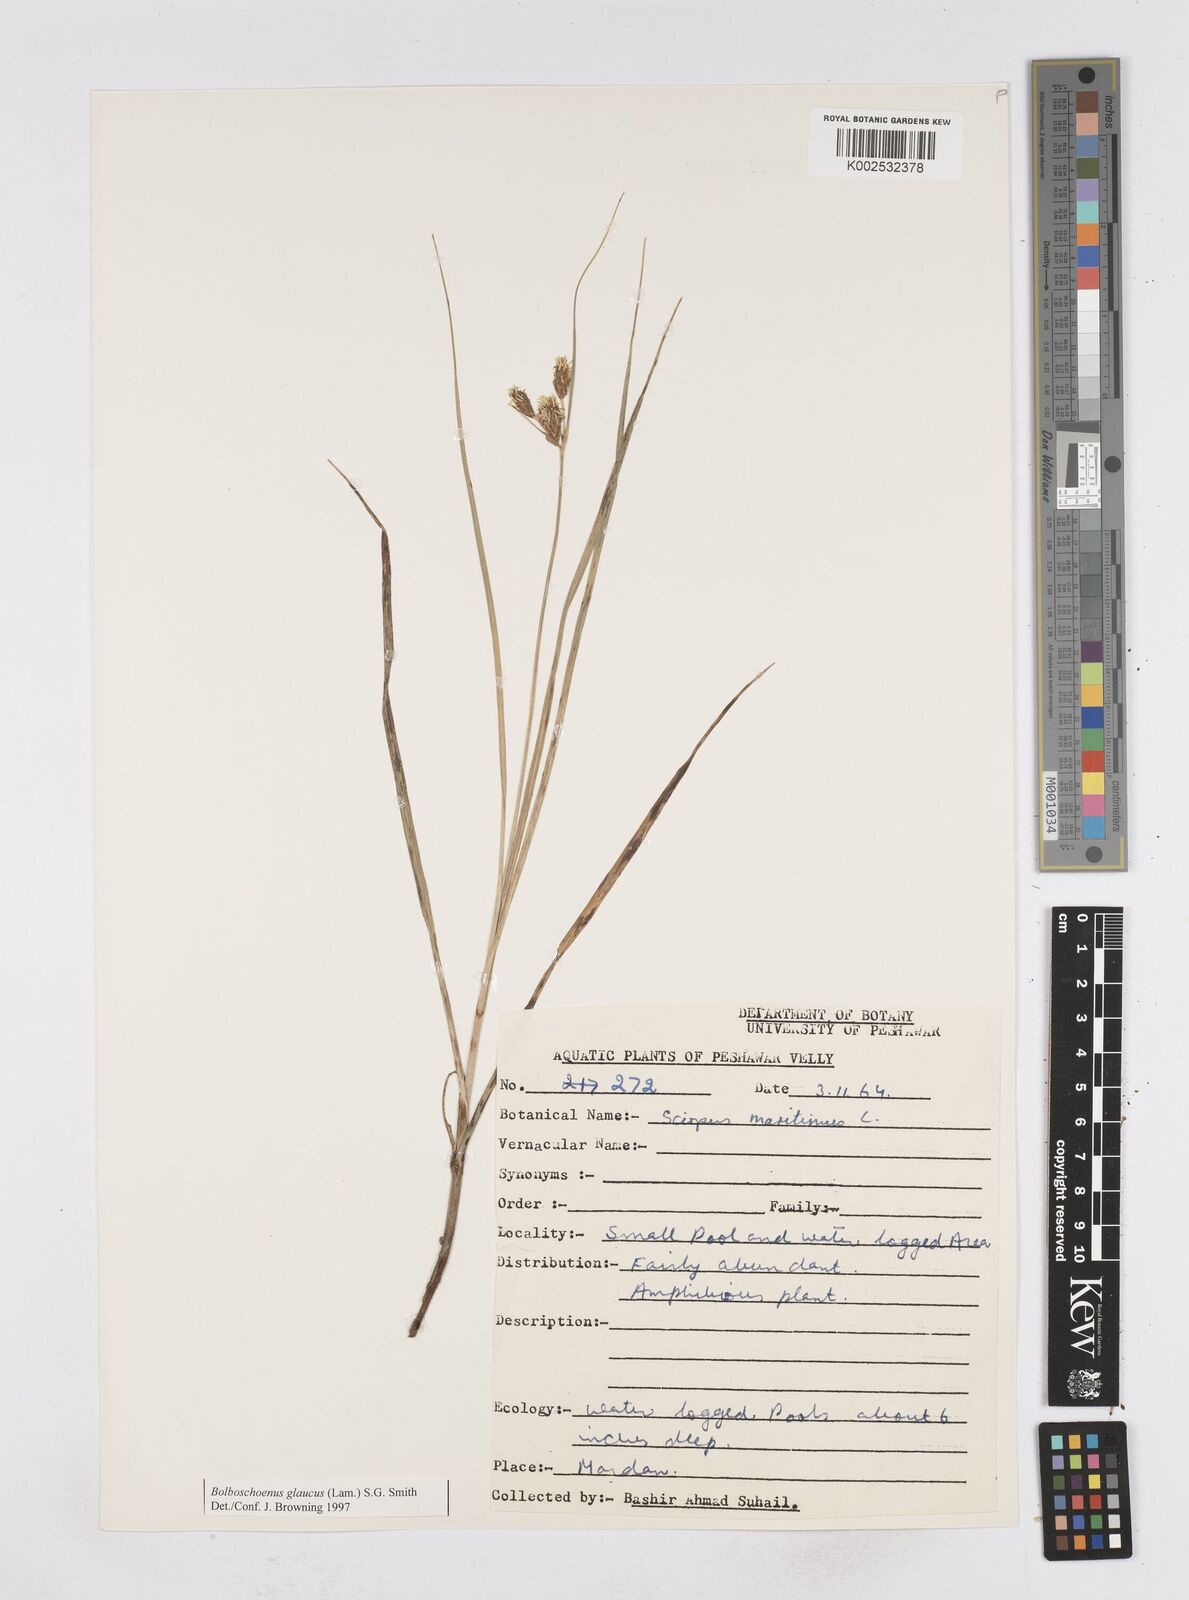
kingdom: Plantae
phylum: Tracheophyta
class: Liliopsida
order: Poales
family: Cyperaceae
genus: Bolboschoenus
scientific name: Bolboschoenus maritimus
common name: Sea club-rush
